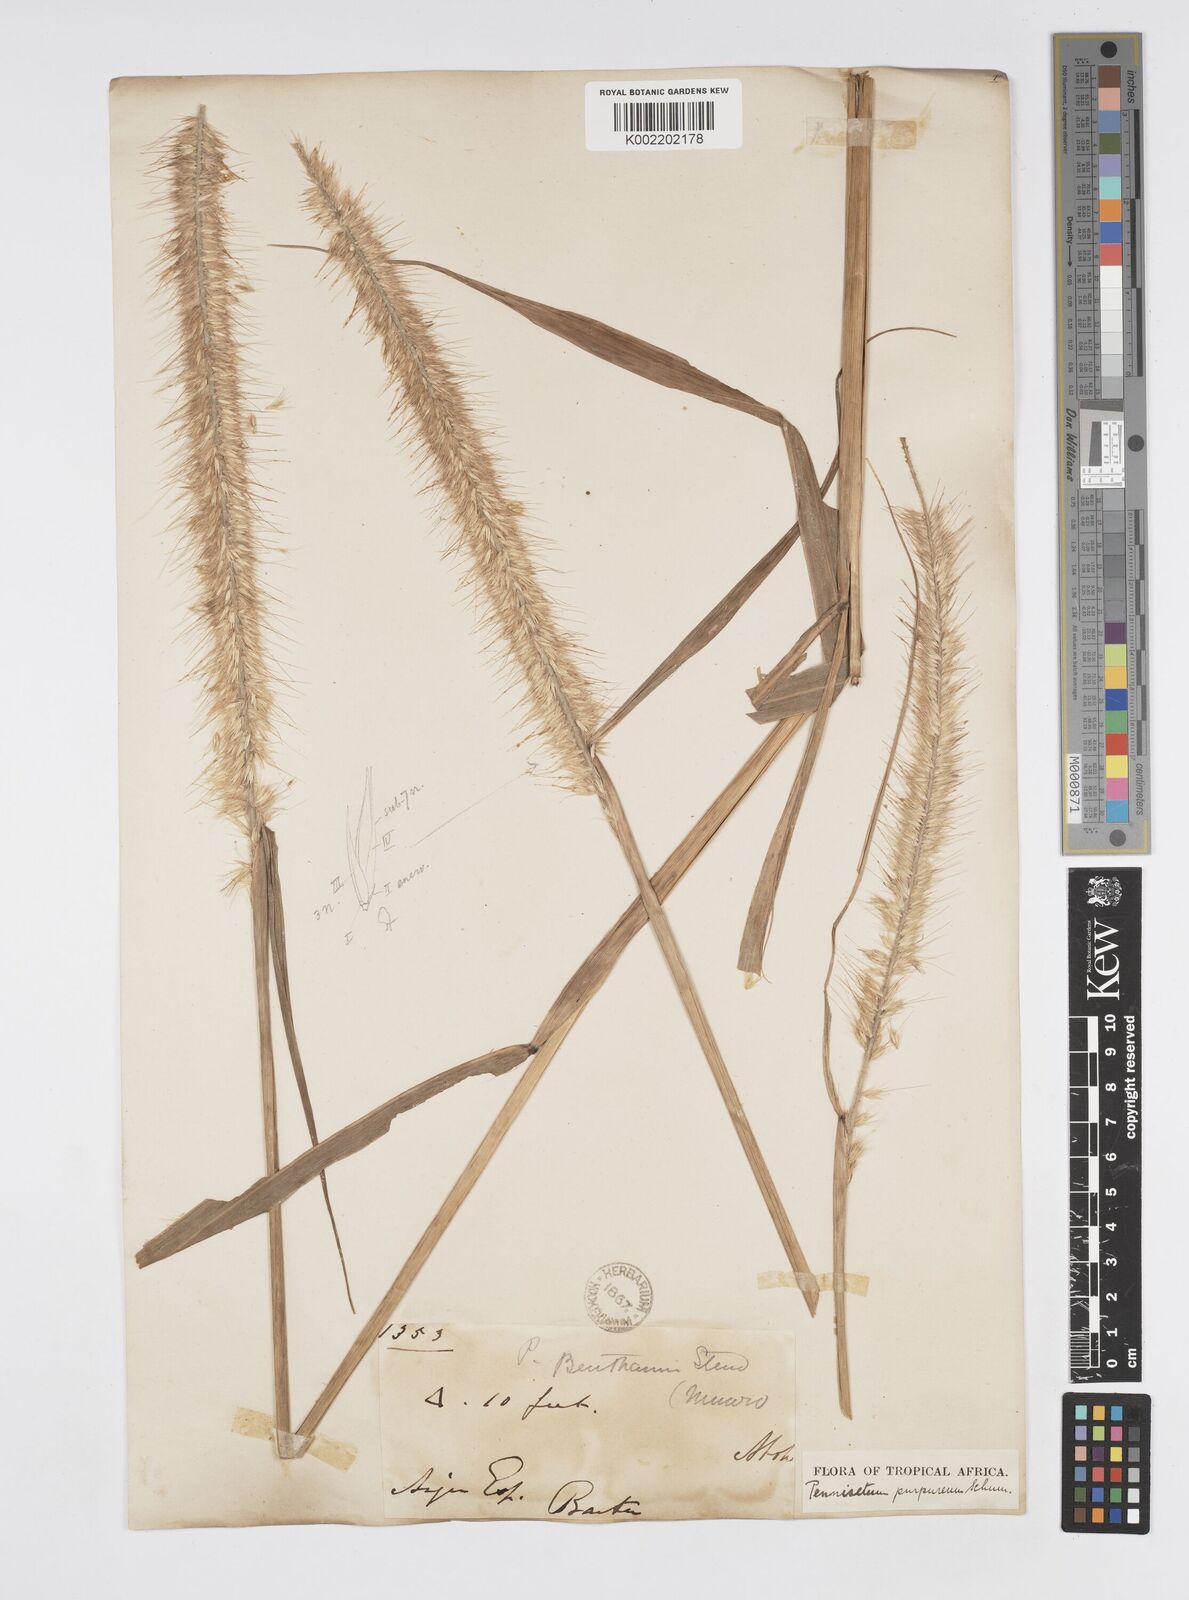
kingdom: Plantae
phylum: Tracheophyta
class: Liliopsida
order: Poales
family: Poaceae
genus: Cenchrus
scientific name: Cenchrus purpureus
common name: Elephant grass
